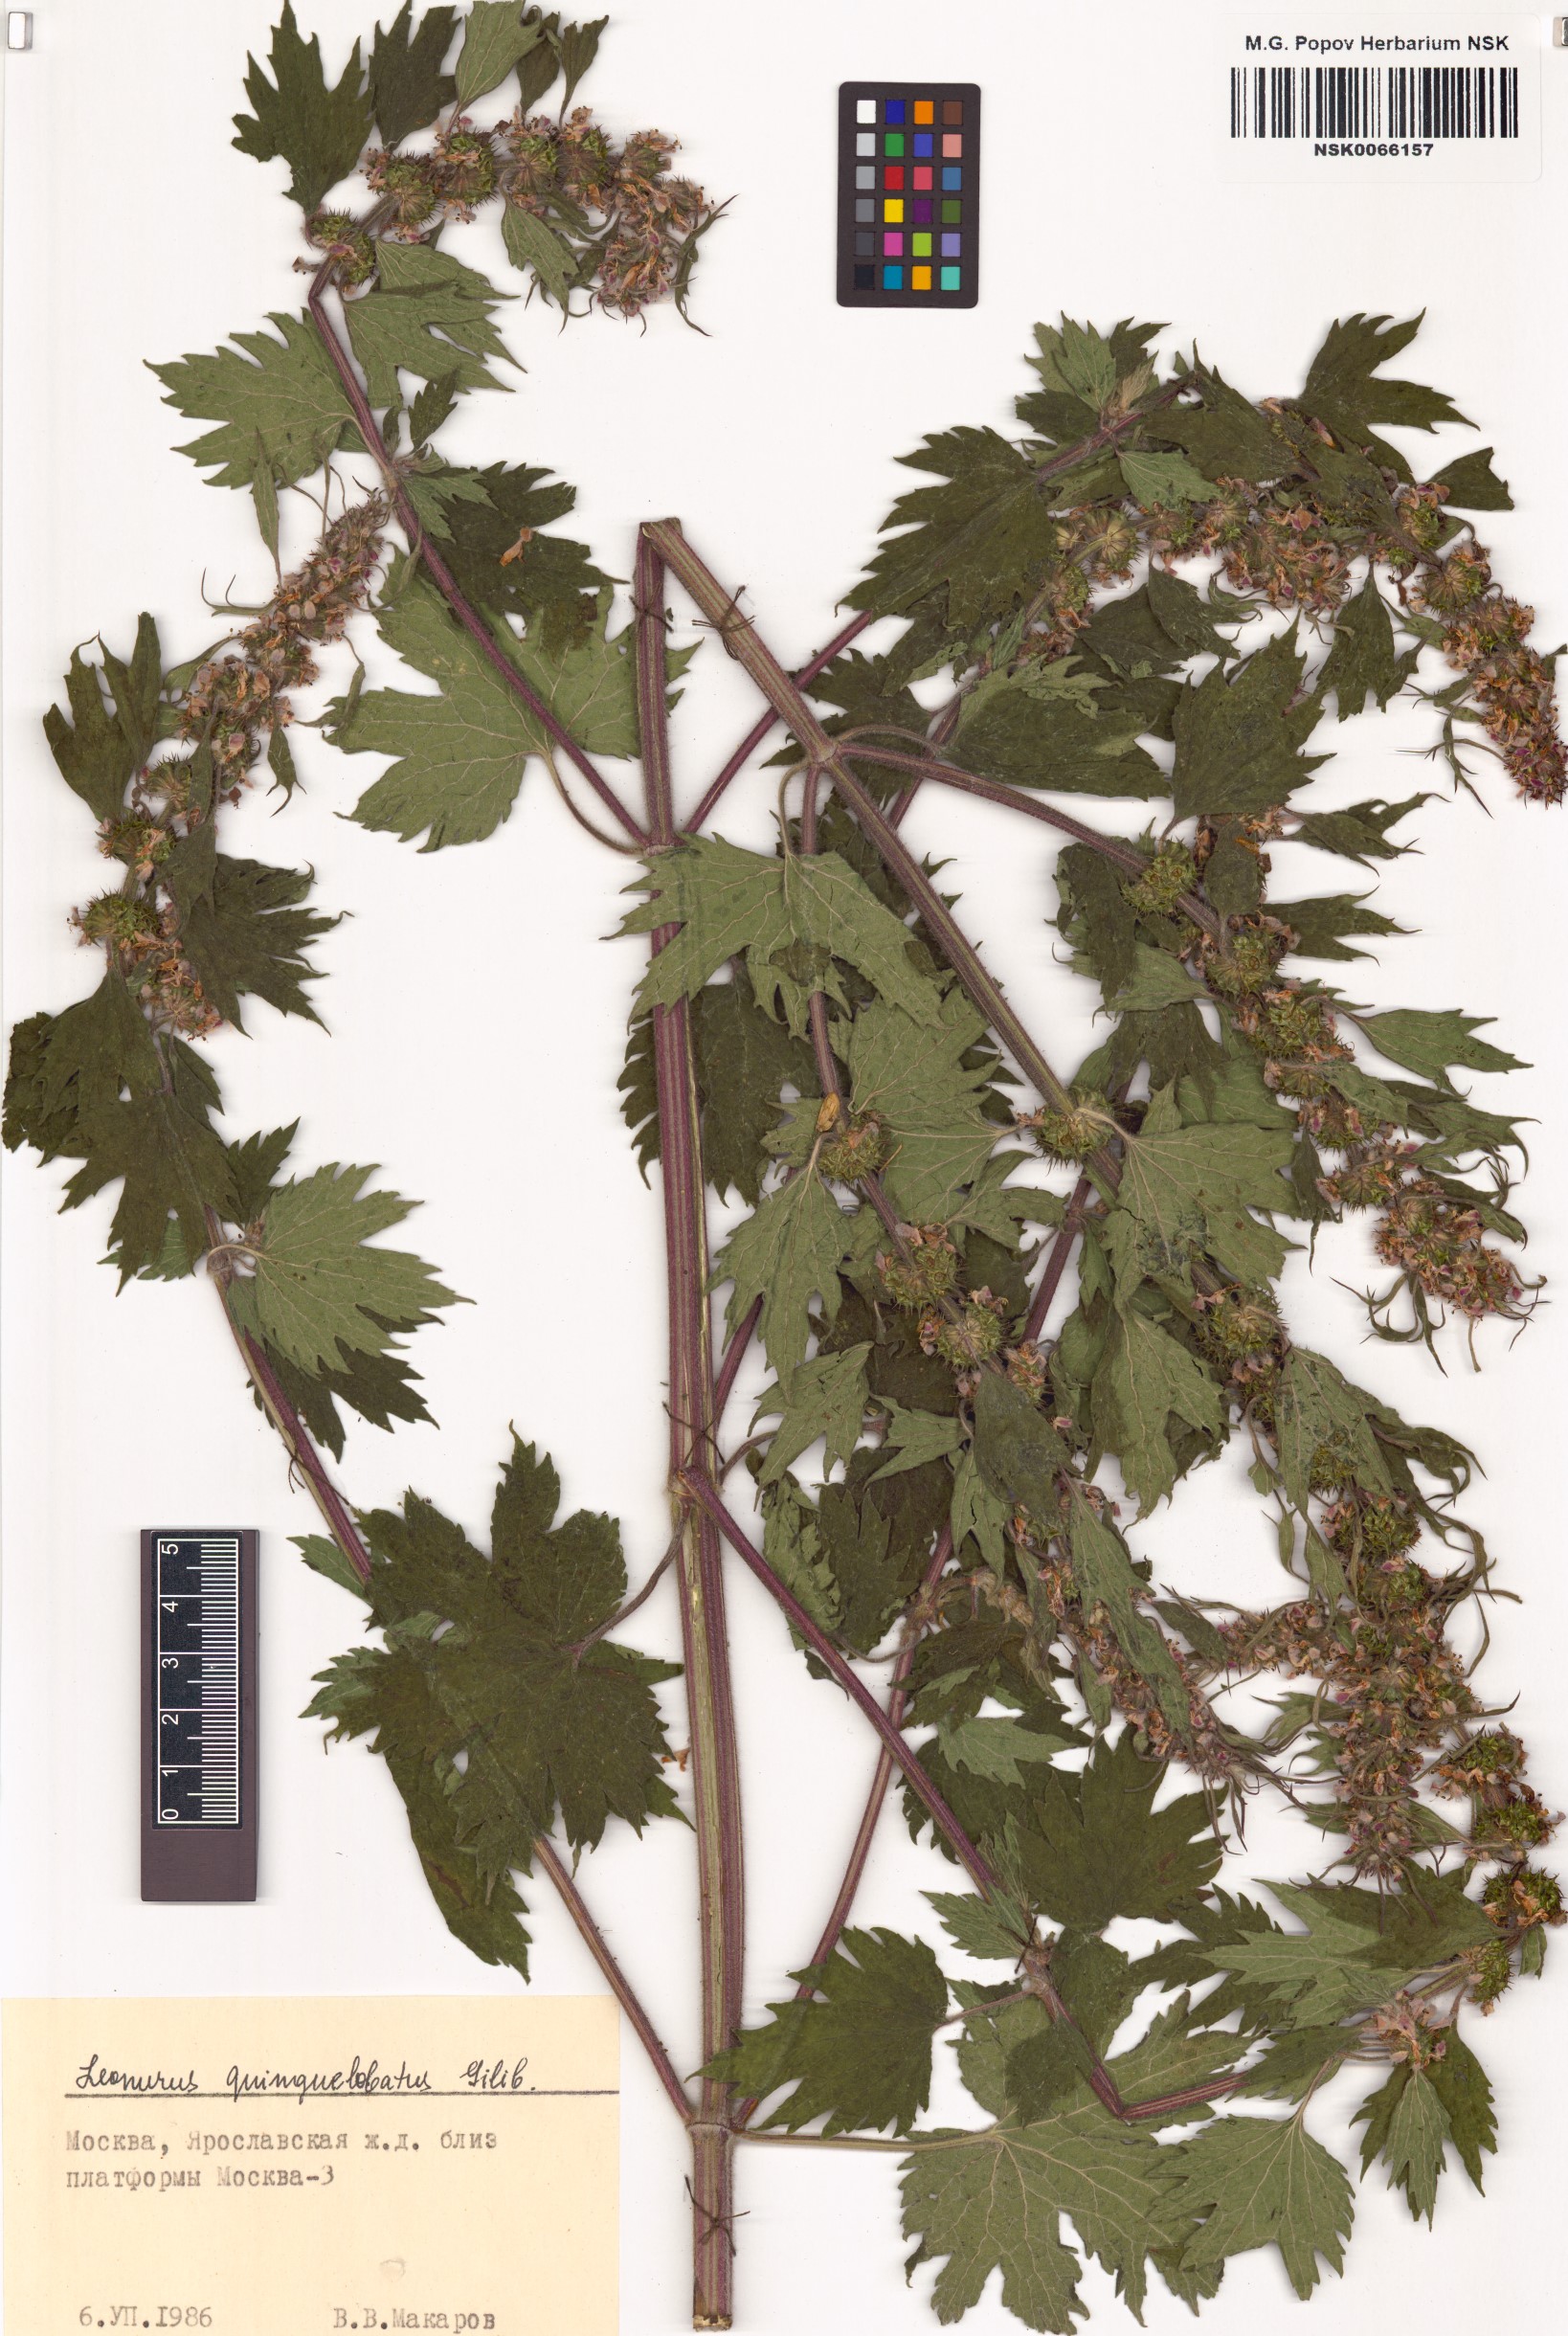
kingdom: Plantae
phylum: Tracheophyta
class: Magnoliopsida
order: Lamiales
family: Lamiaceae
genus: Leonurus
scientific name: Leonurus quinquelobatus
